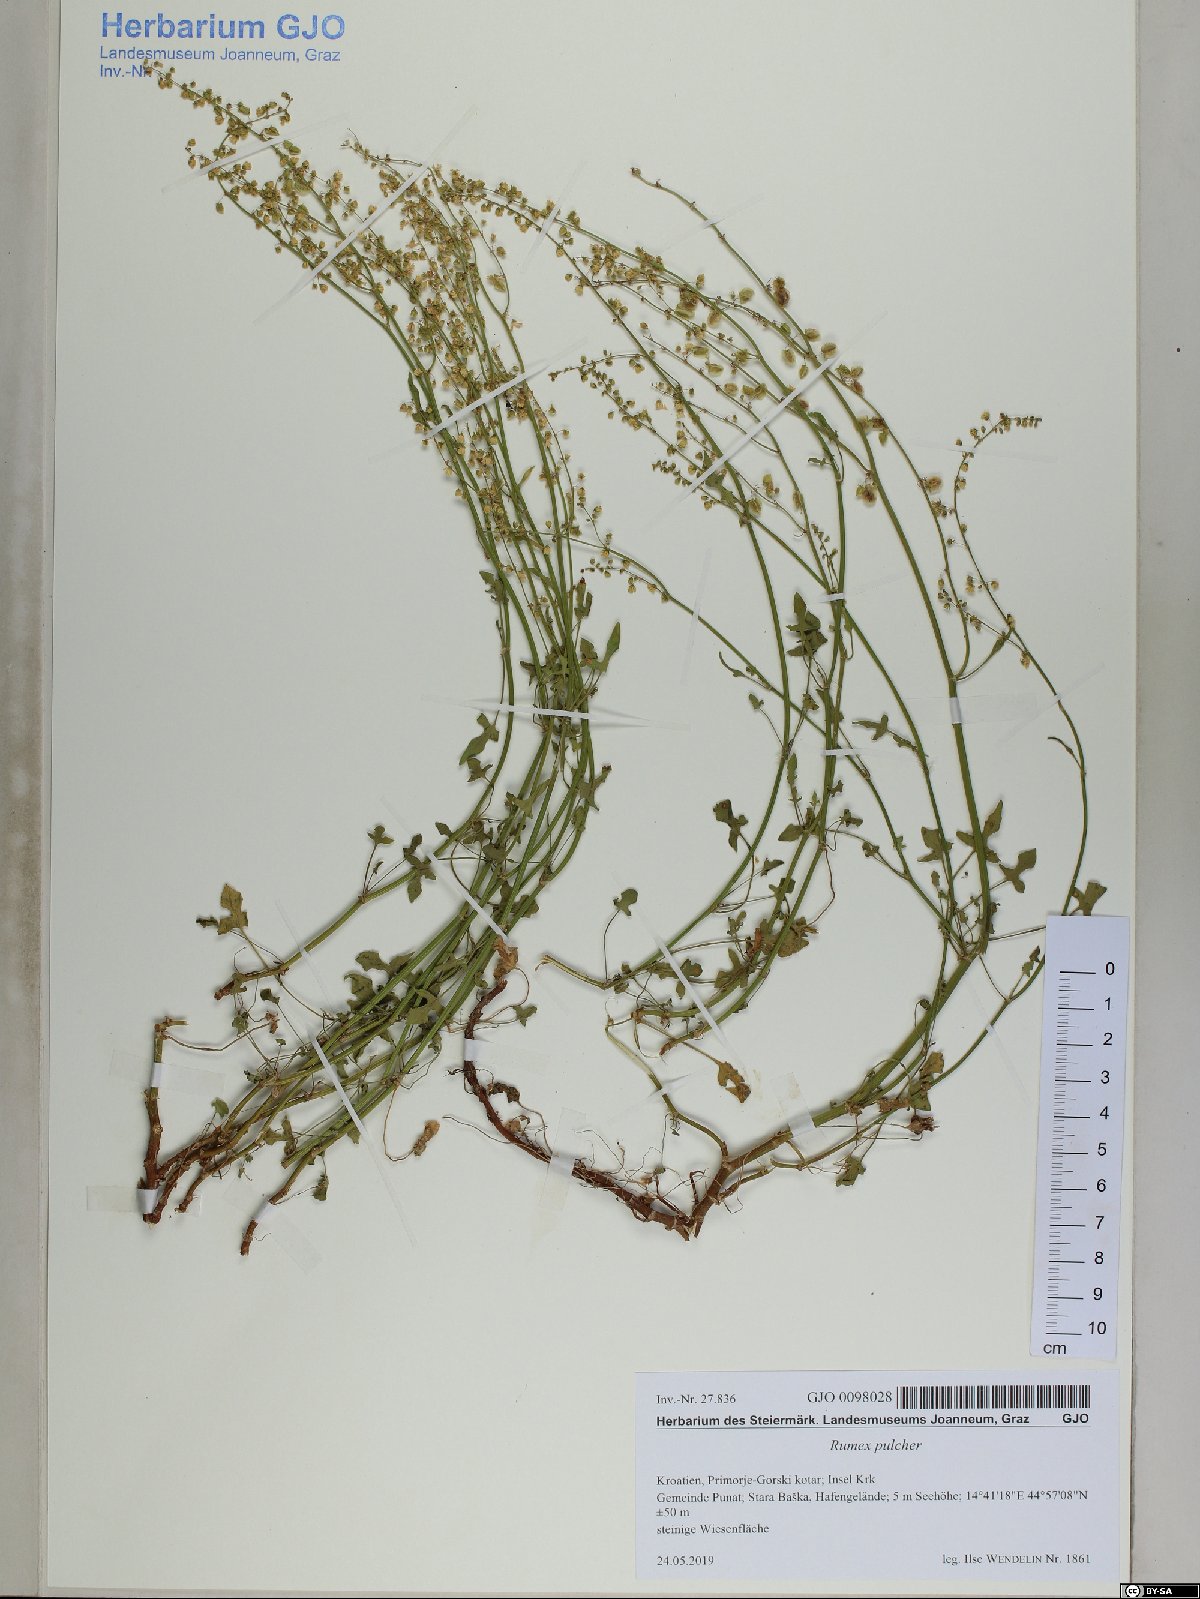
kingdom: Plantae
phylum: Tracheophyta
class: Magnoliopsida
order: Caryophyllales
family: Polygonaceae
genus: Rumex
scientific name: Rumex scutatus
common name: French sorrel
